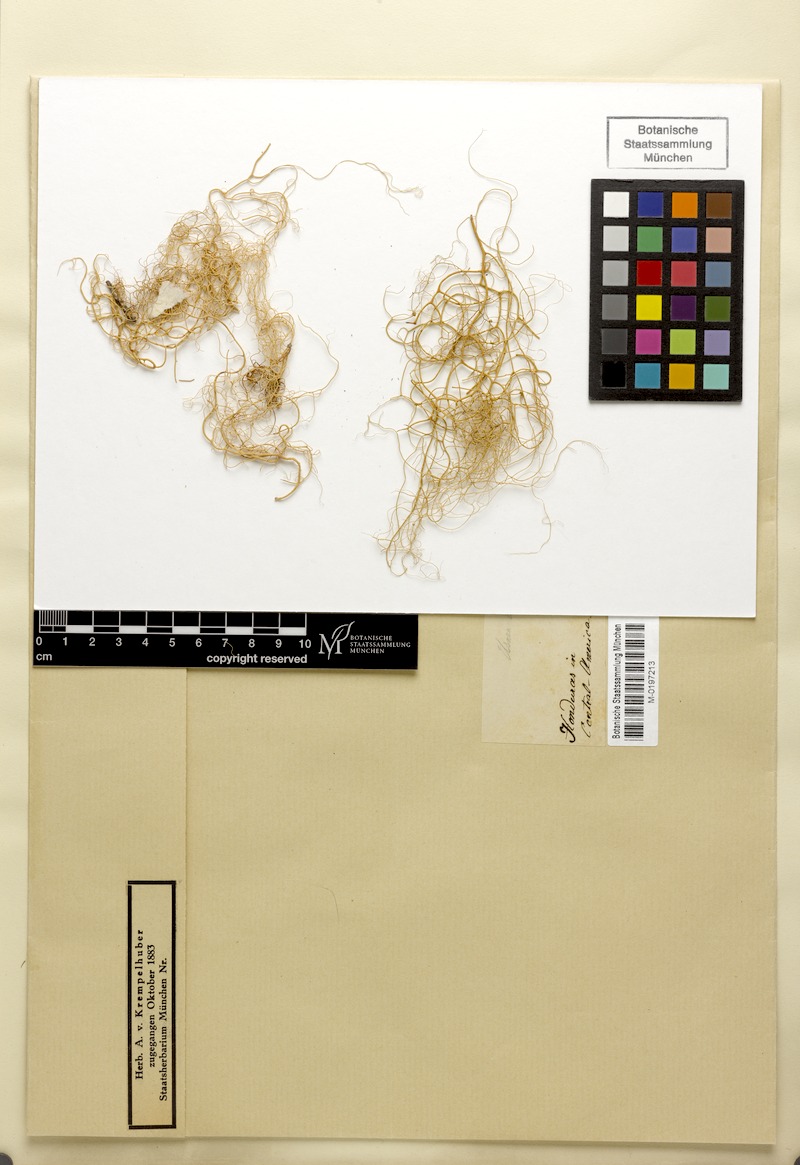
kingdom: Fungi
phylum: Ascomycota
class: Lecanoromycetes
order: Lecanorales
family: Parmeliaceae
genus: Usnea
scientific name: Usnea vrieseana
